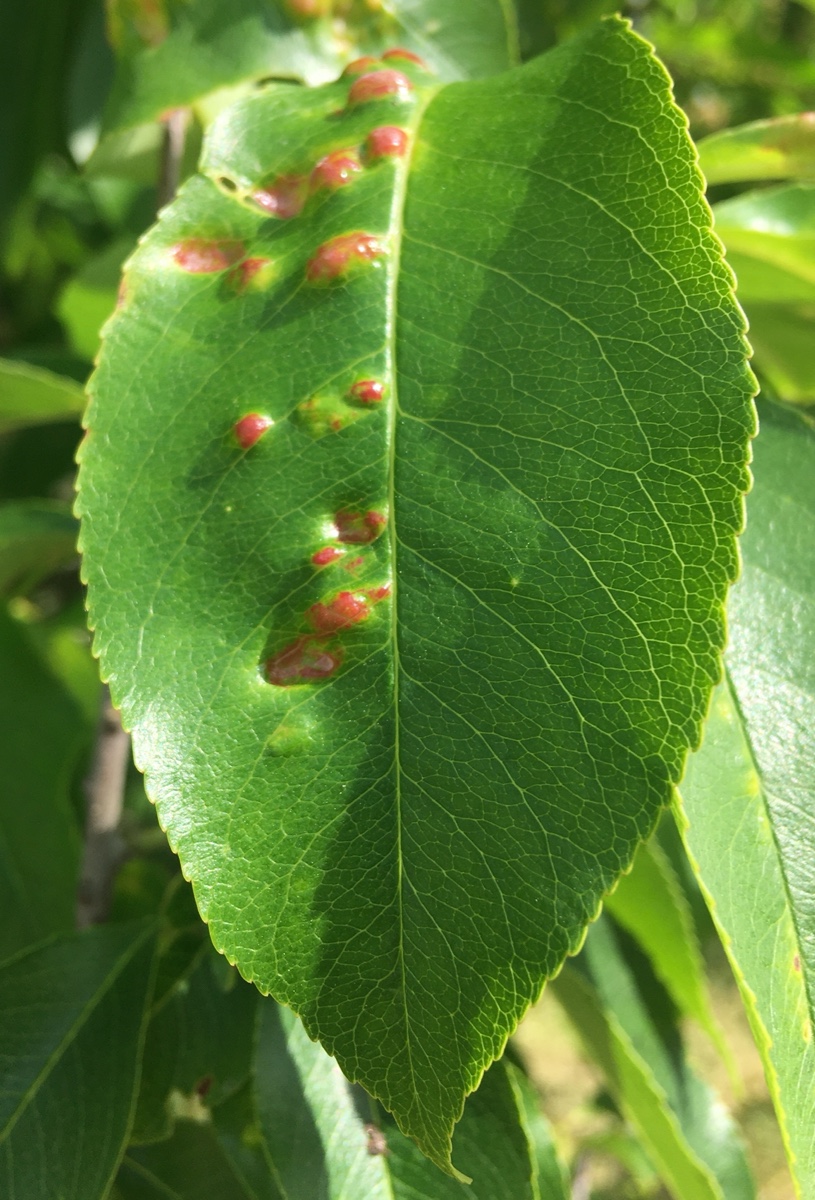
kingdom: Fungi
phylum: Ascomycota
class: Taphrinomycetes
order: Taphrinales
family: Taphrinaceae
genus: Taphrina
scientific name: Taphrina farlowii
